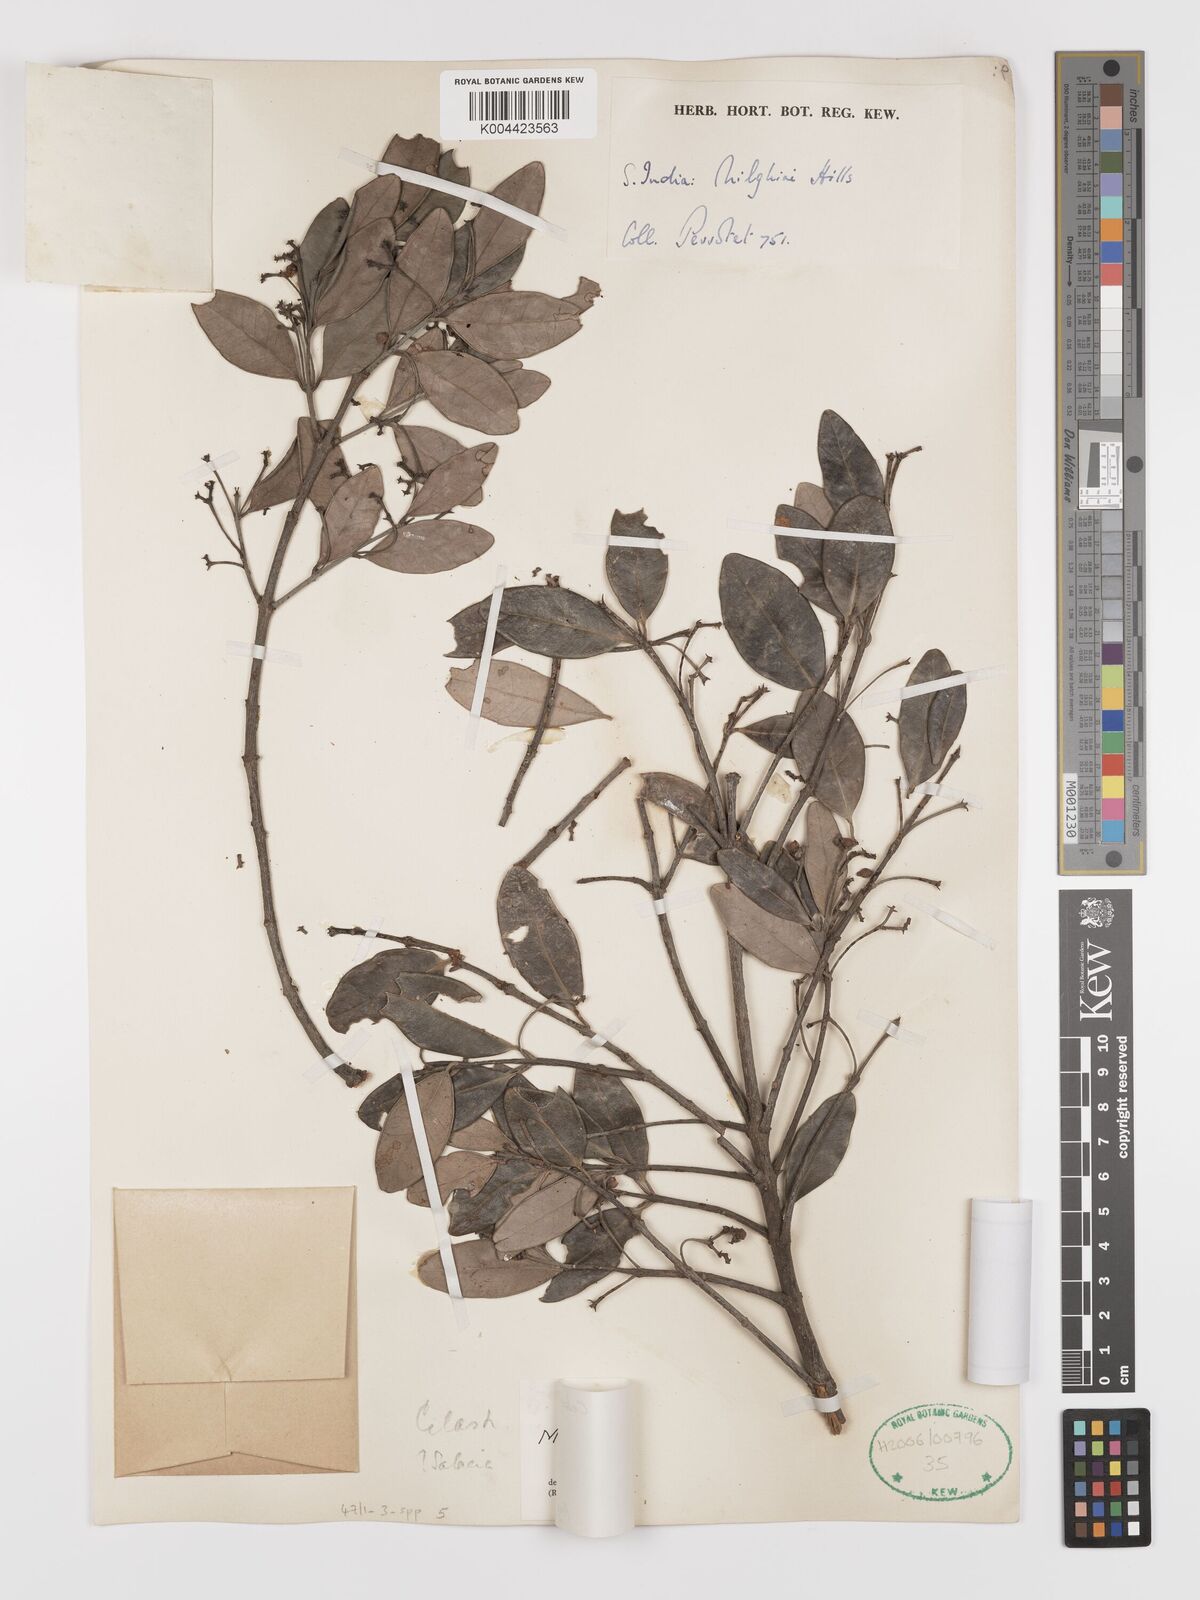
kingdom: Plantae
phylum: Tracheophyta
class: Magnoliopsida
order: Celastrales
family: Celastraceae
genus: Microtropis
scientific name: Microtropis microcarpa
